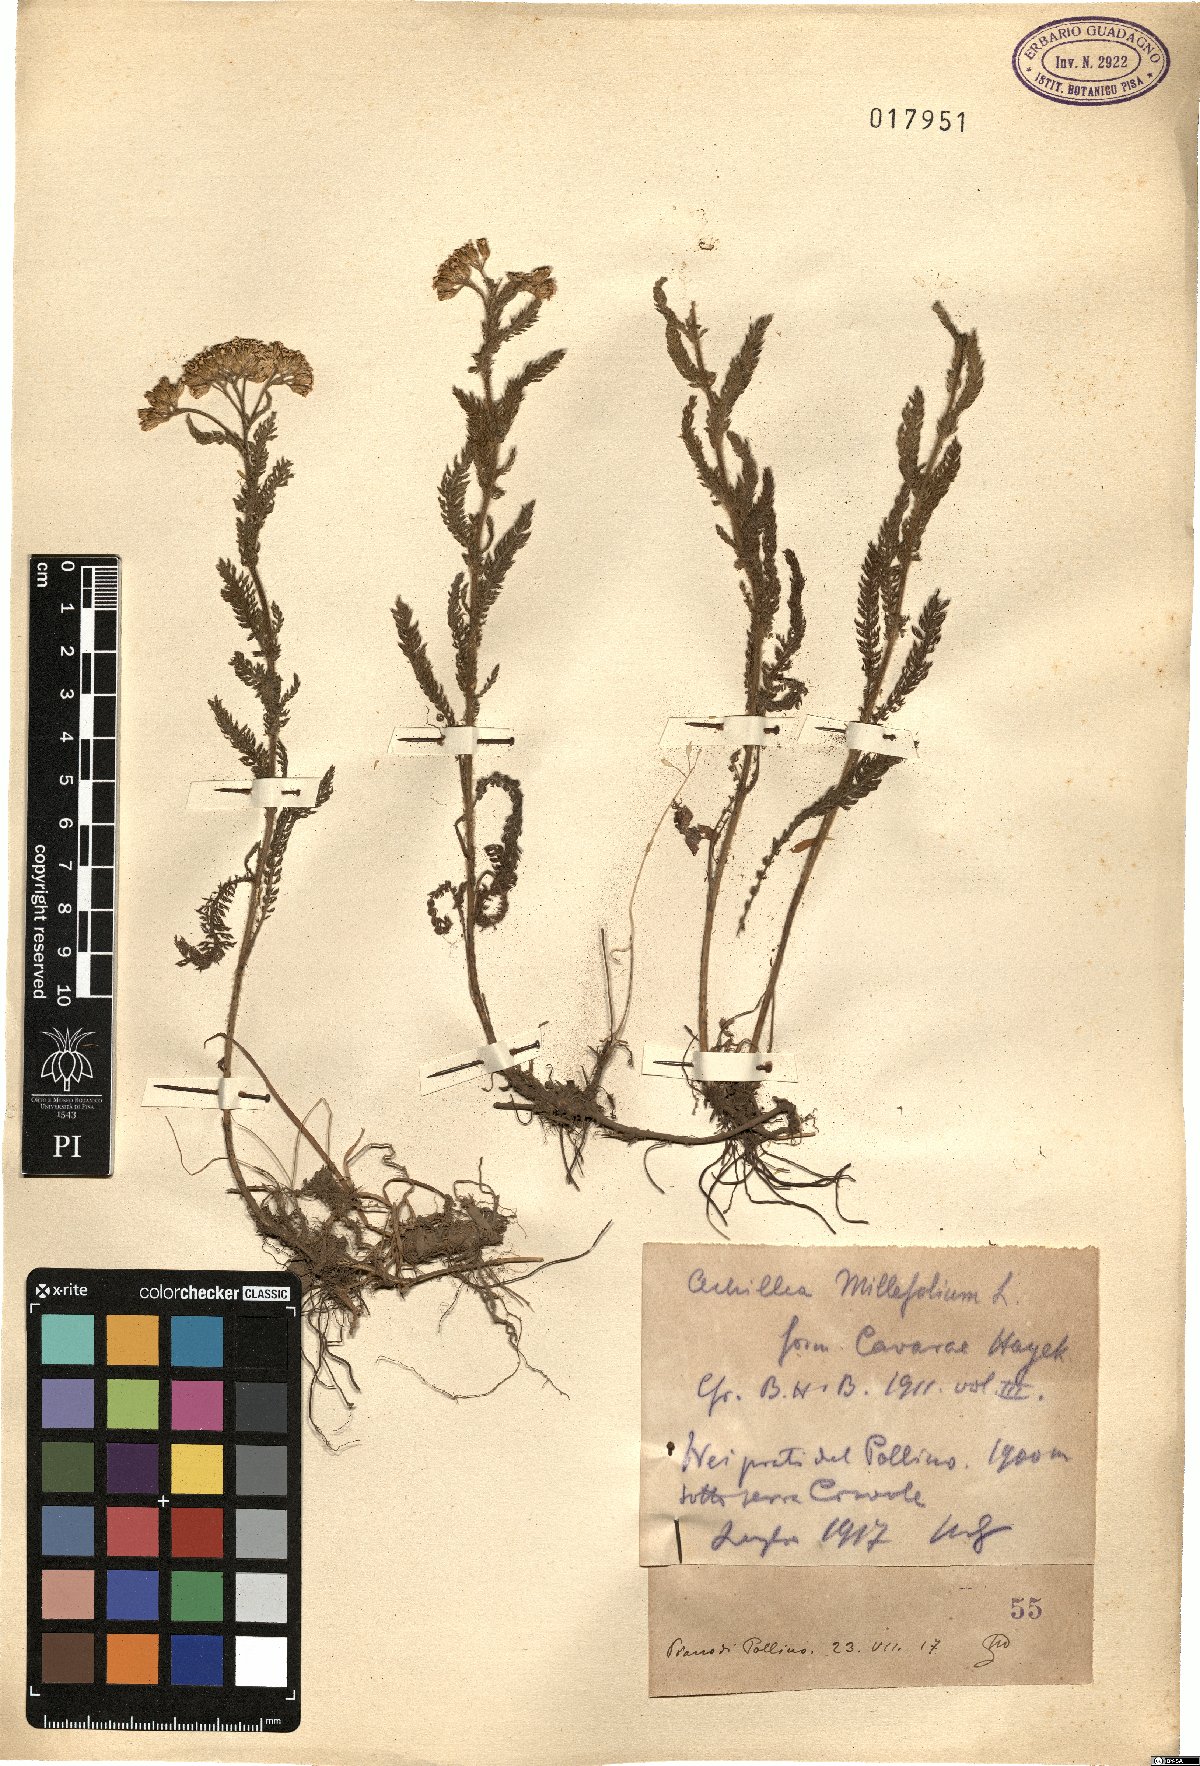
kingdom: Plantae
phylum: Tracheophyta
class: Magnoliopsida
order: Asterales
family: Asteraceae
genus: Achillea
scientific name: Achillea collina
